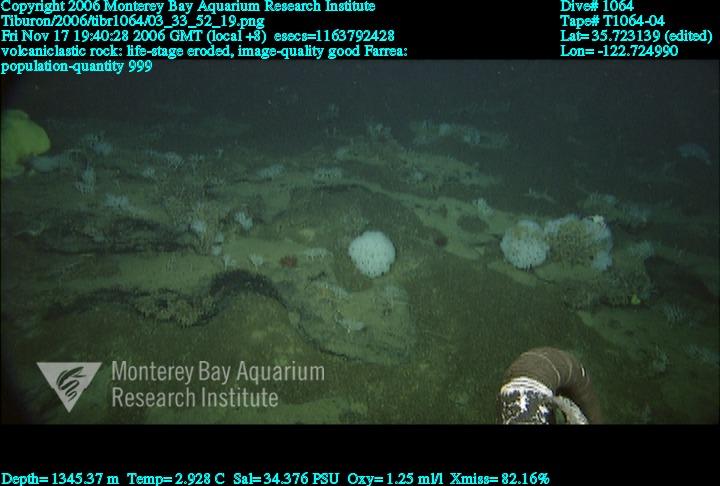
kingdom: Animalia
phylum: Porifera
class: Hexactinellida
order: Sceptrulophora
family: Farreidae
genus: Farrea
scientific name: Farrea
